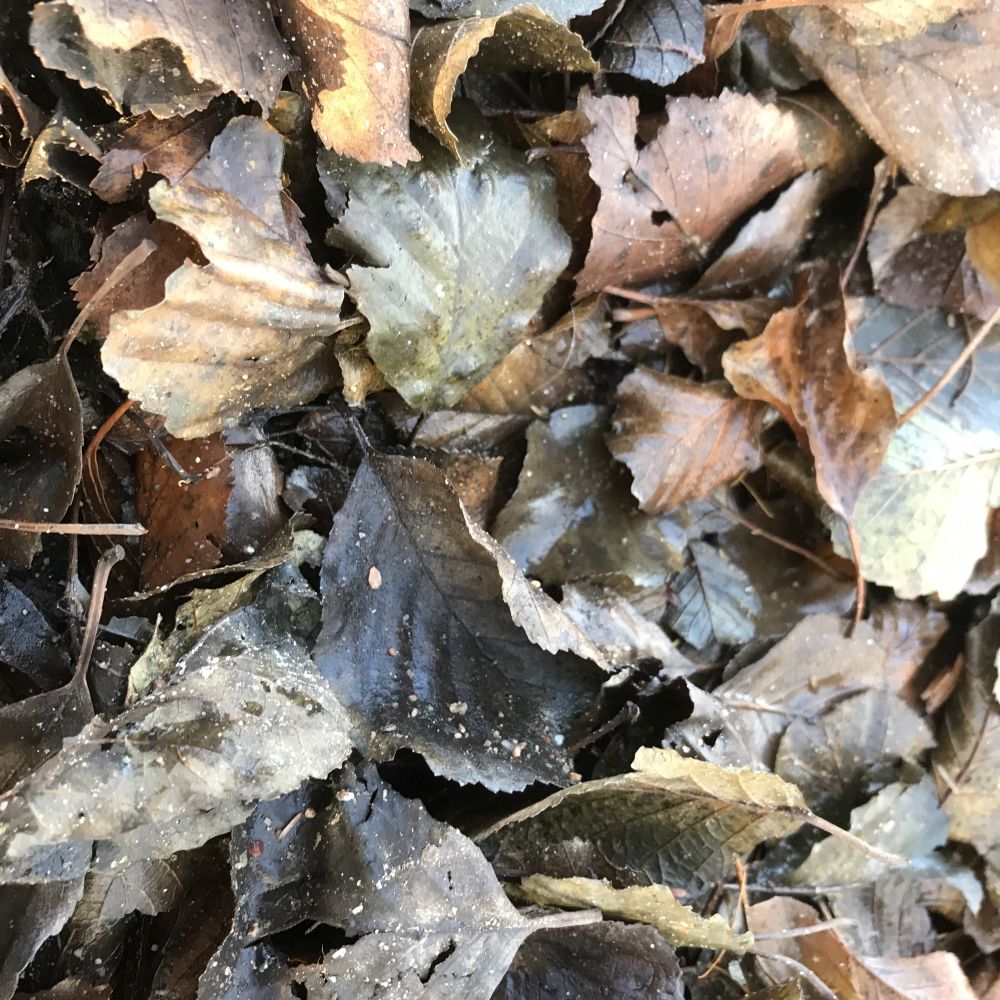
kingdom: Fungi
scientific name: Fungi
